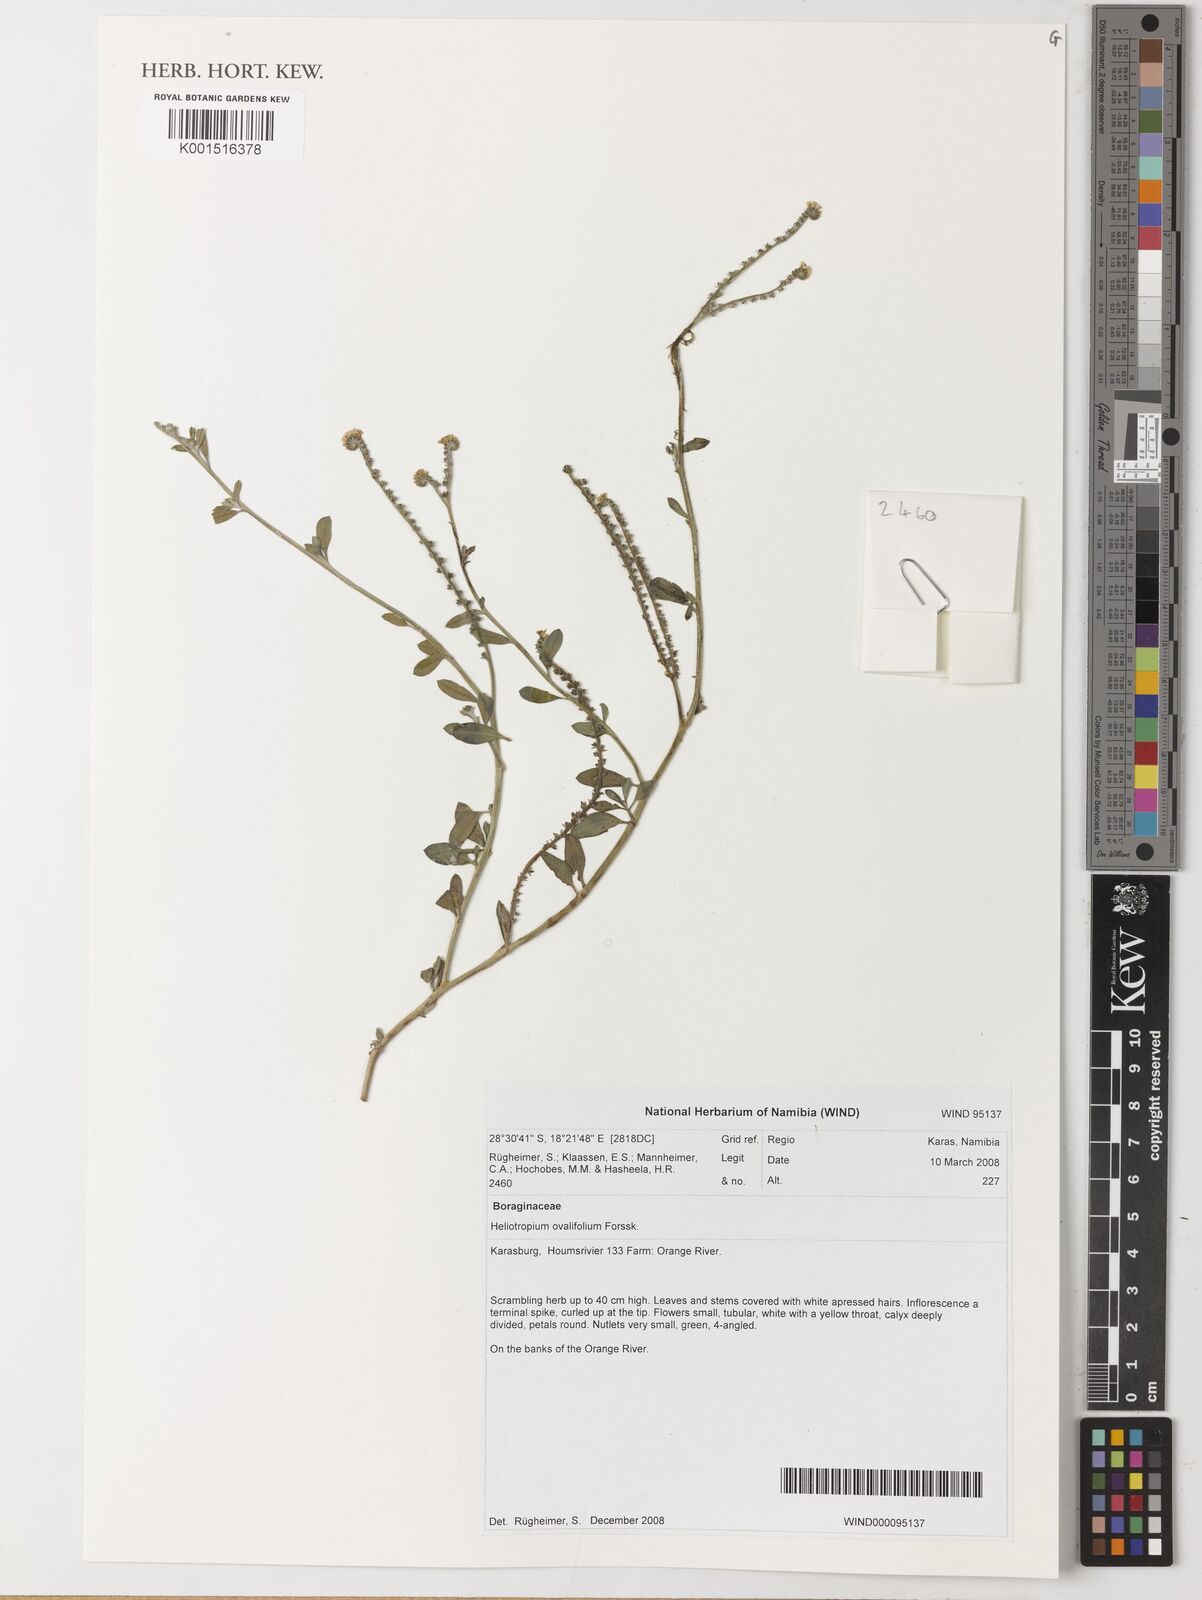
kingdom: Plantae
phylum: Tracheophyta
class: Magnoliopsida
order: Boraginales
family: Heliotropiaceae
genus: Euploca
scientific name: Euploca ovalifolia
